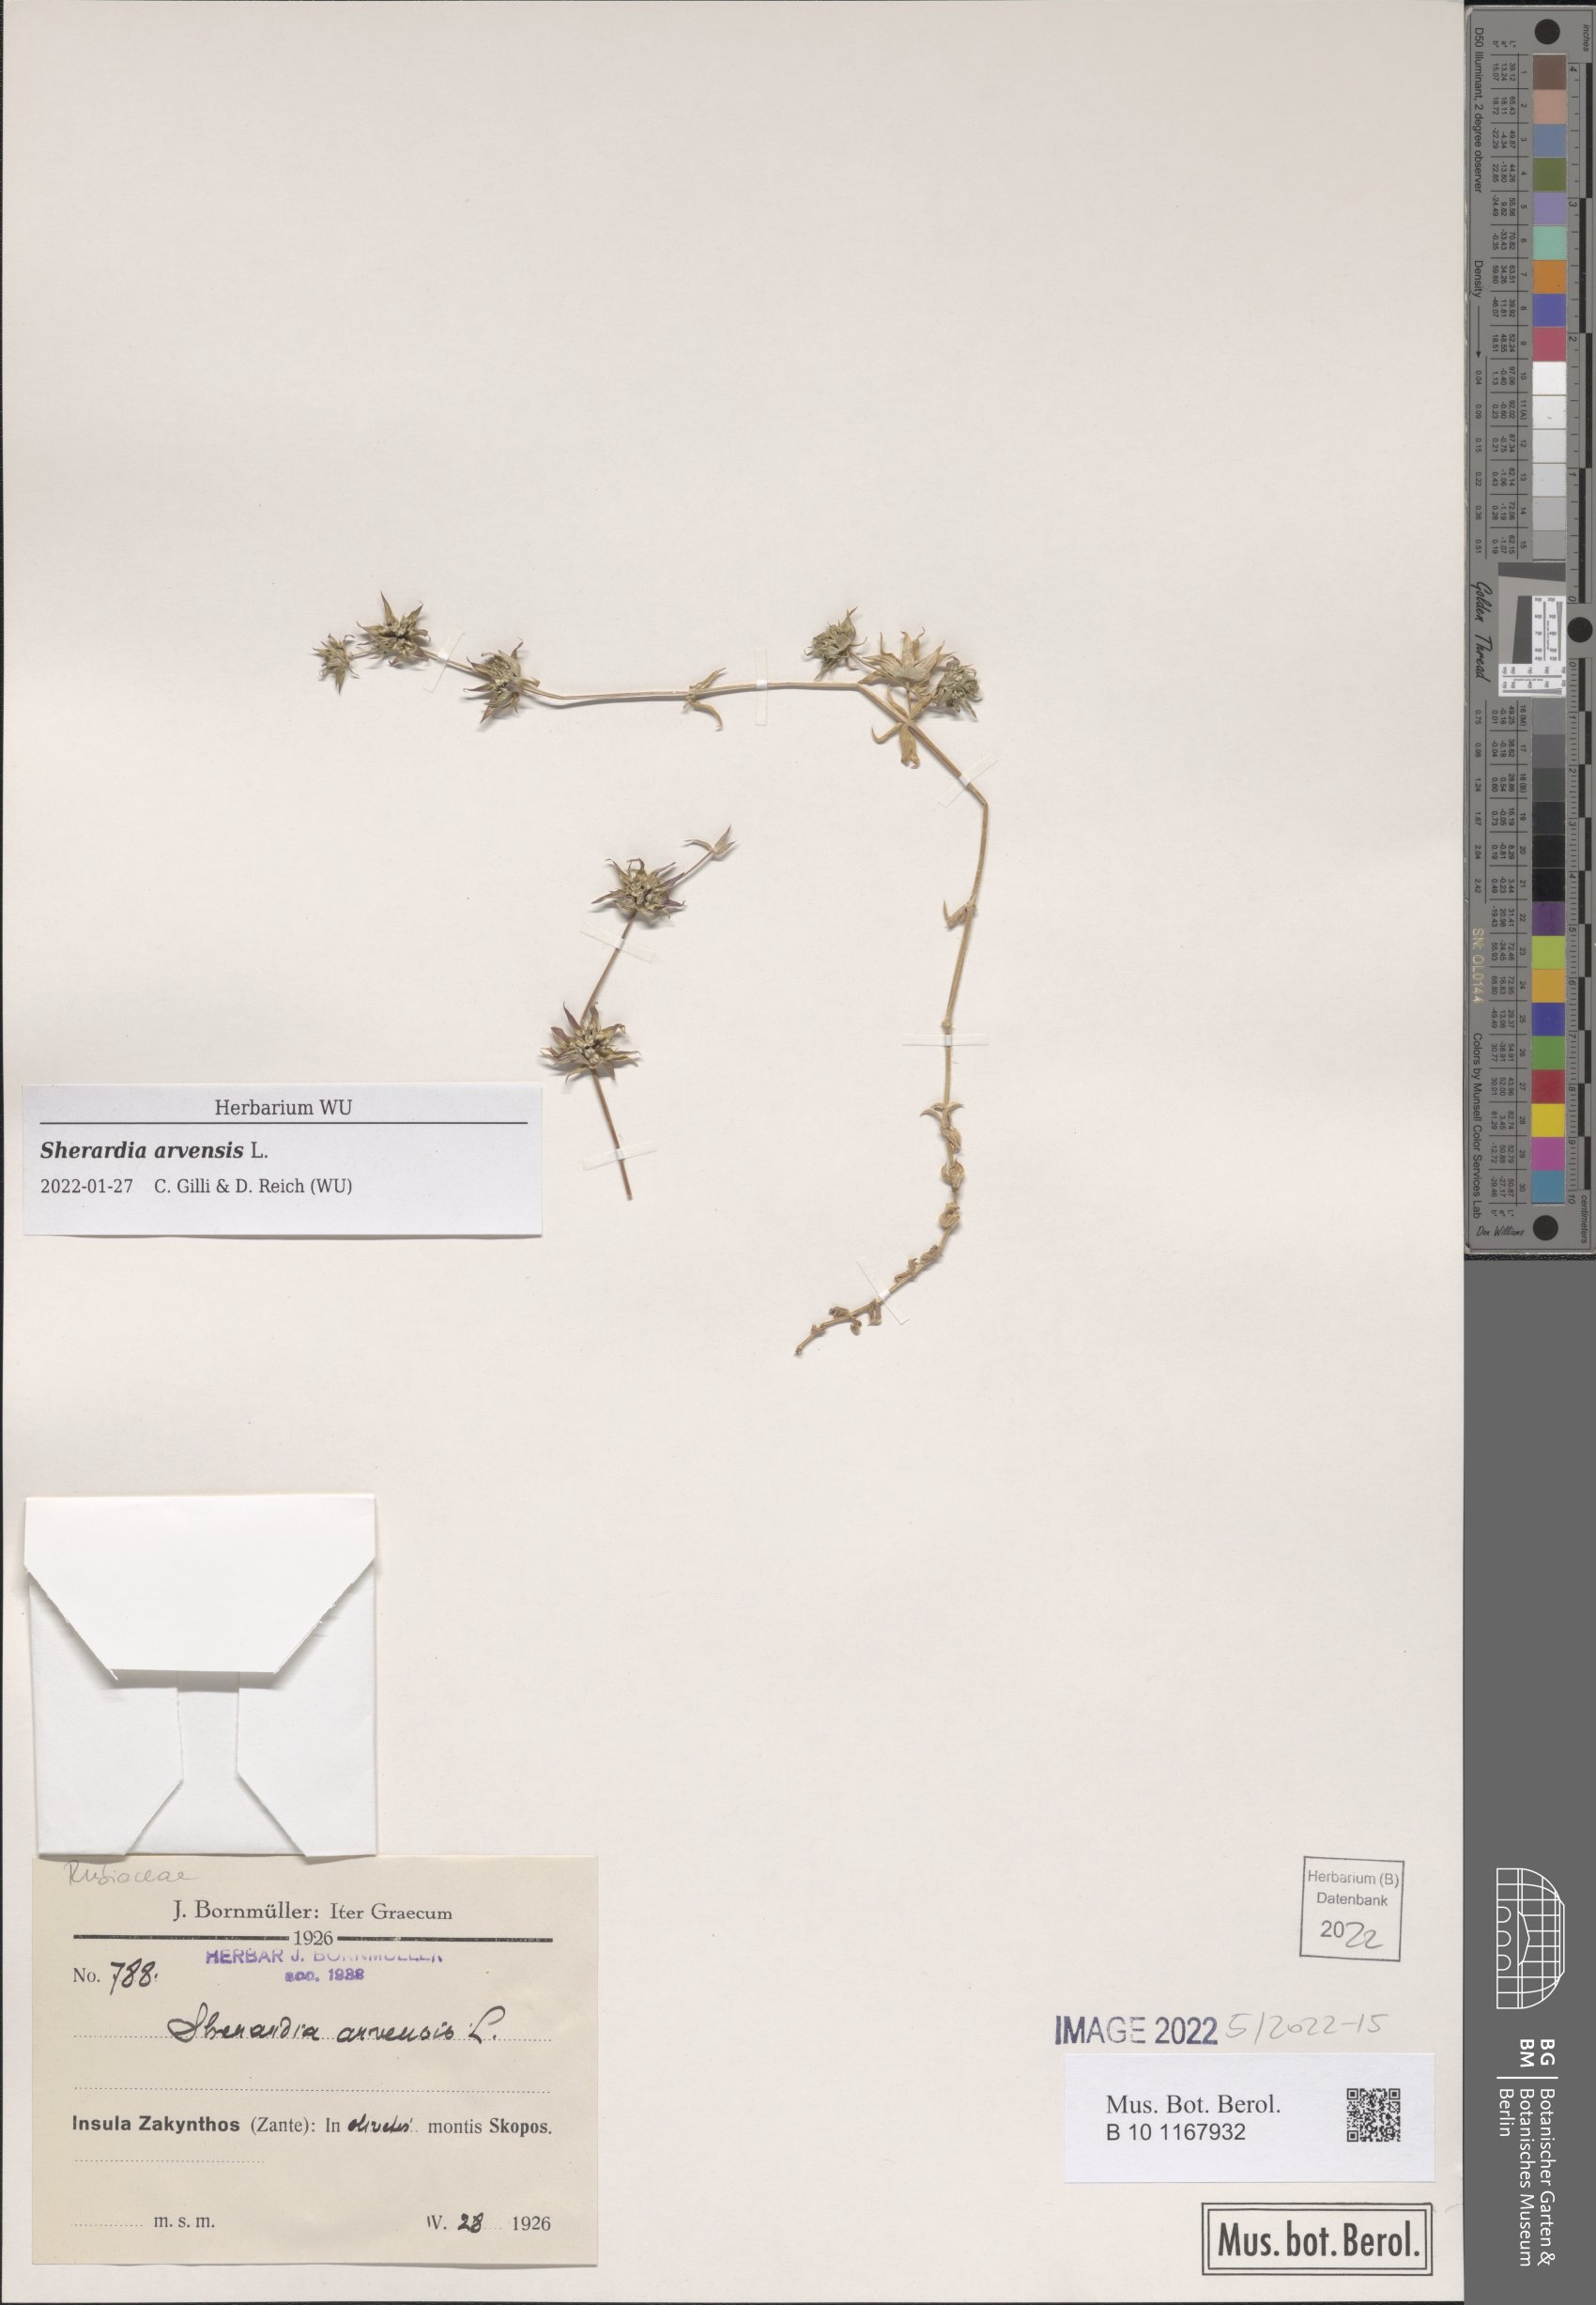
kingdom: Plantae
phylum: Tracheophyta
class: Magnoliopsida
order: Gentianales
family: Rubiaceae
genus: Sherardia
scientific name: Sherardia arvensis
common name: Field madder
